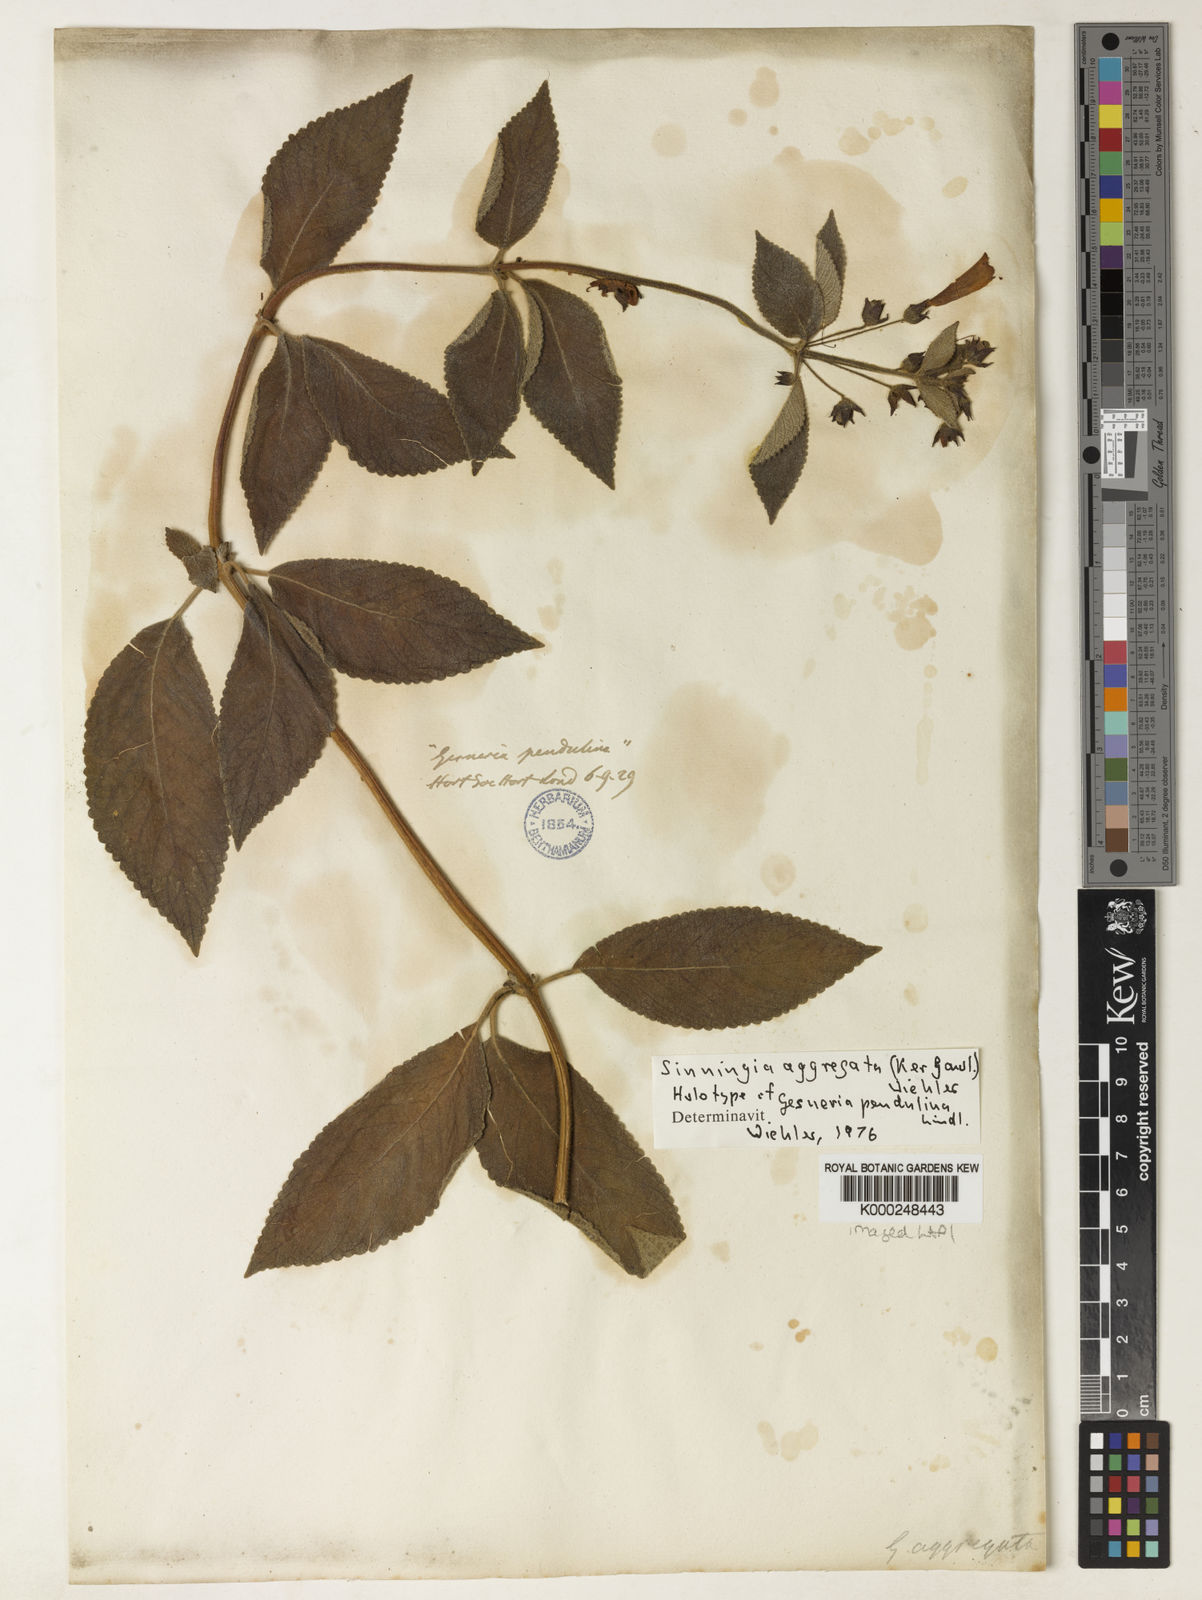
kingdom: Plantae
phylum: Tracheophyta
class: Magnoliopsida
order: Lamiales
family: Gesneriaceae
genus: Sinningia
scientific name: Sinningia aggregata
